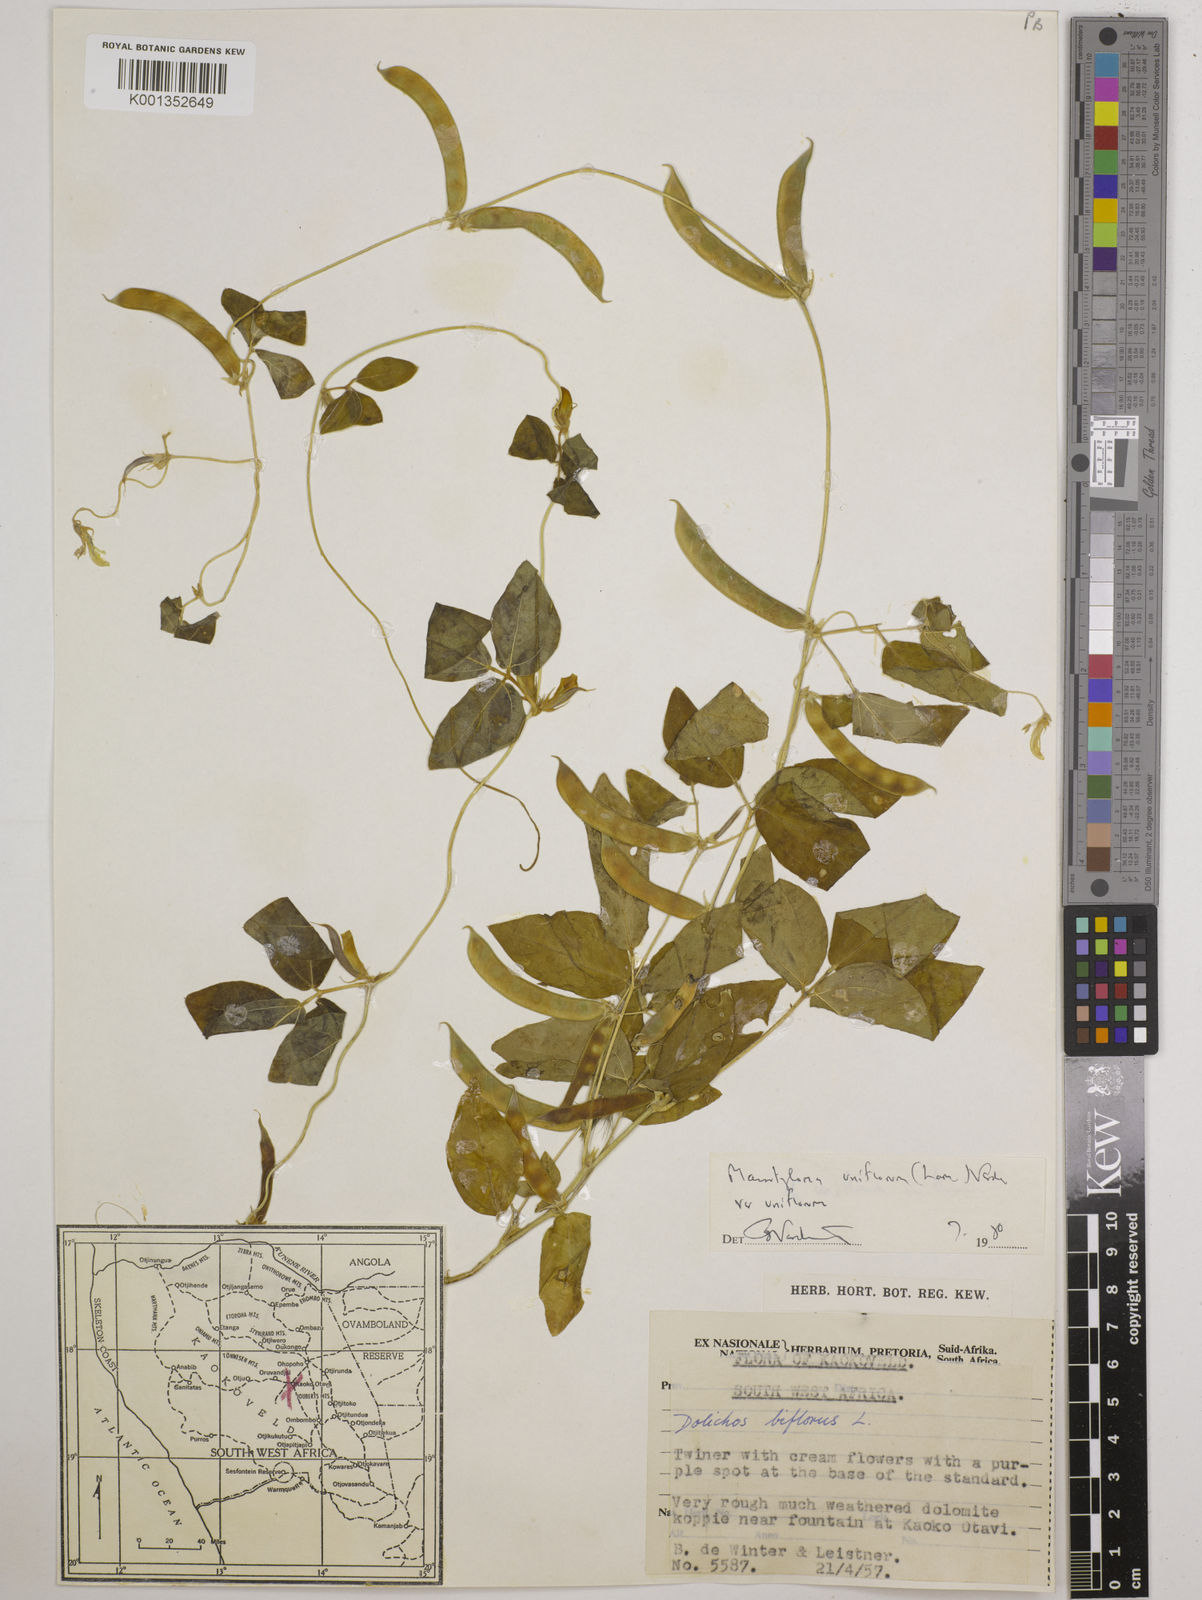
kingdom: Plantae
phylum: Tracheophyta
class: Magnoliopsida
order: Fabales
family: Fabaceae
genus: Macrotyloma
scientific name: Macrotyloma uniflorum
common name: Horse gram
